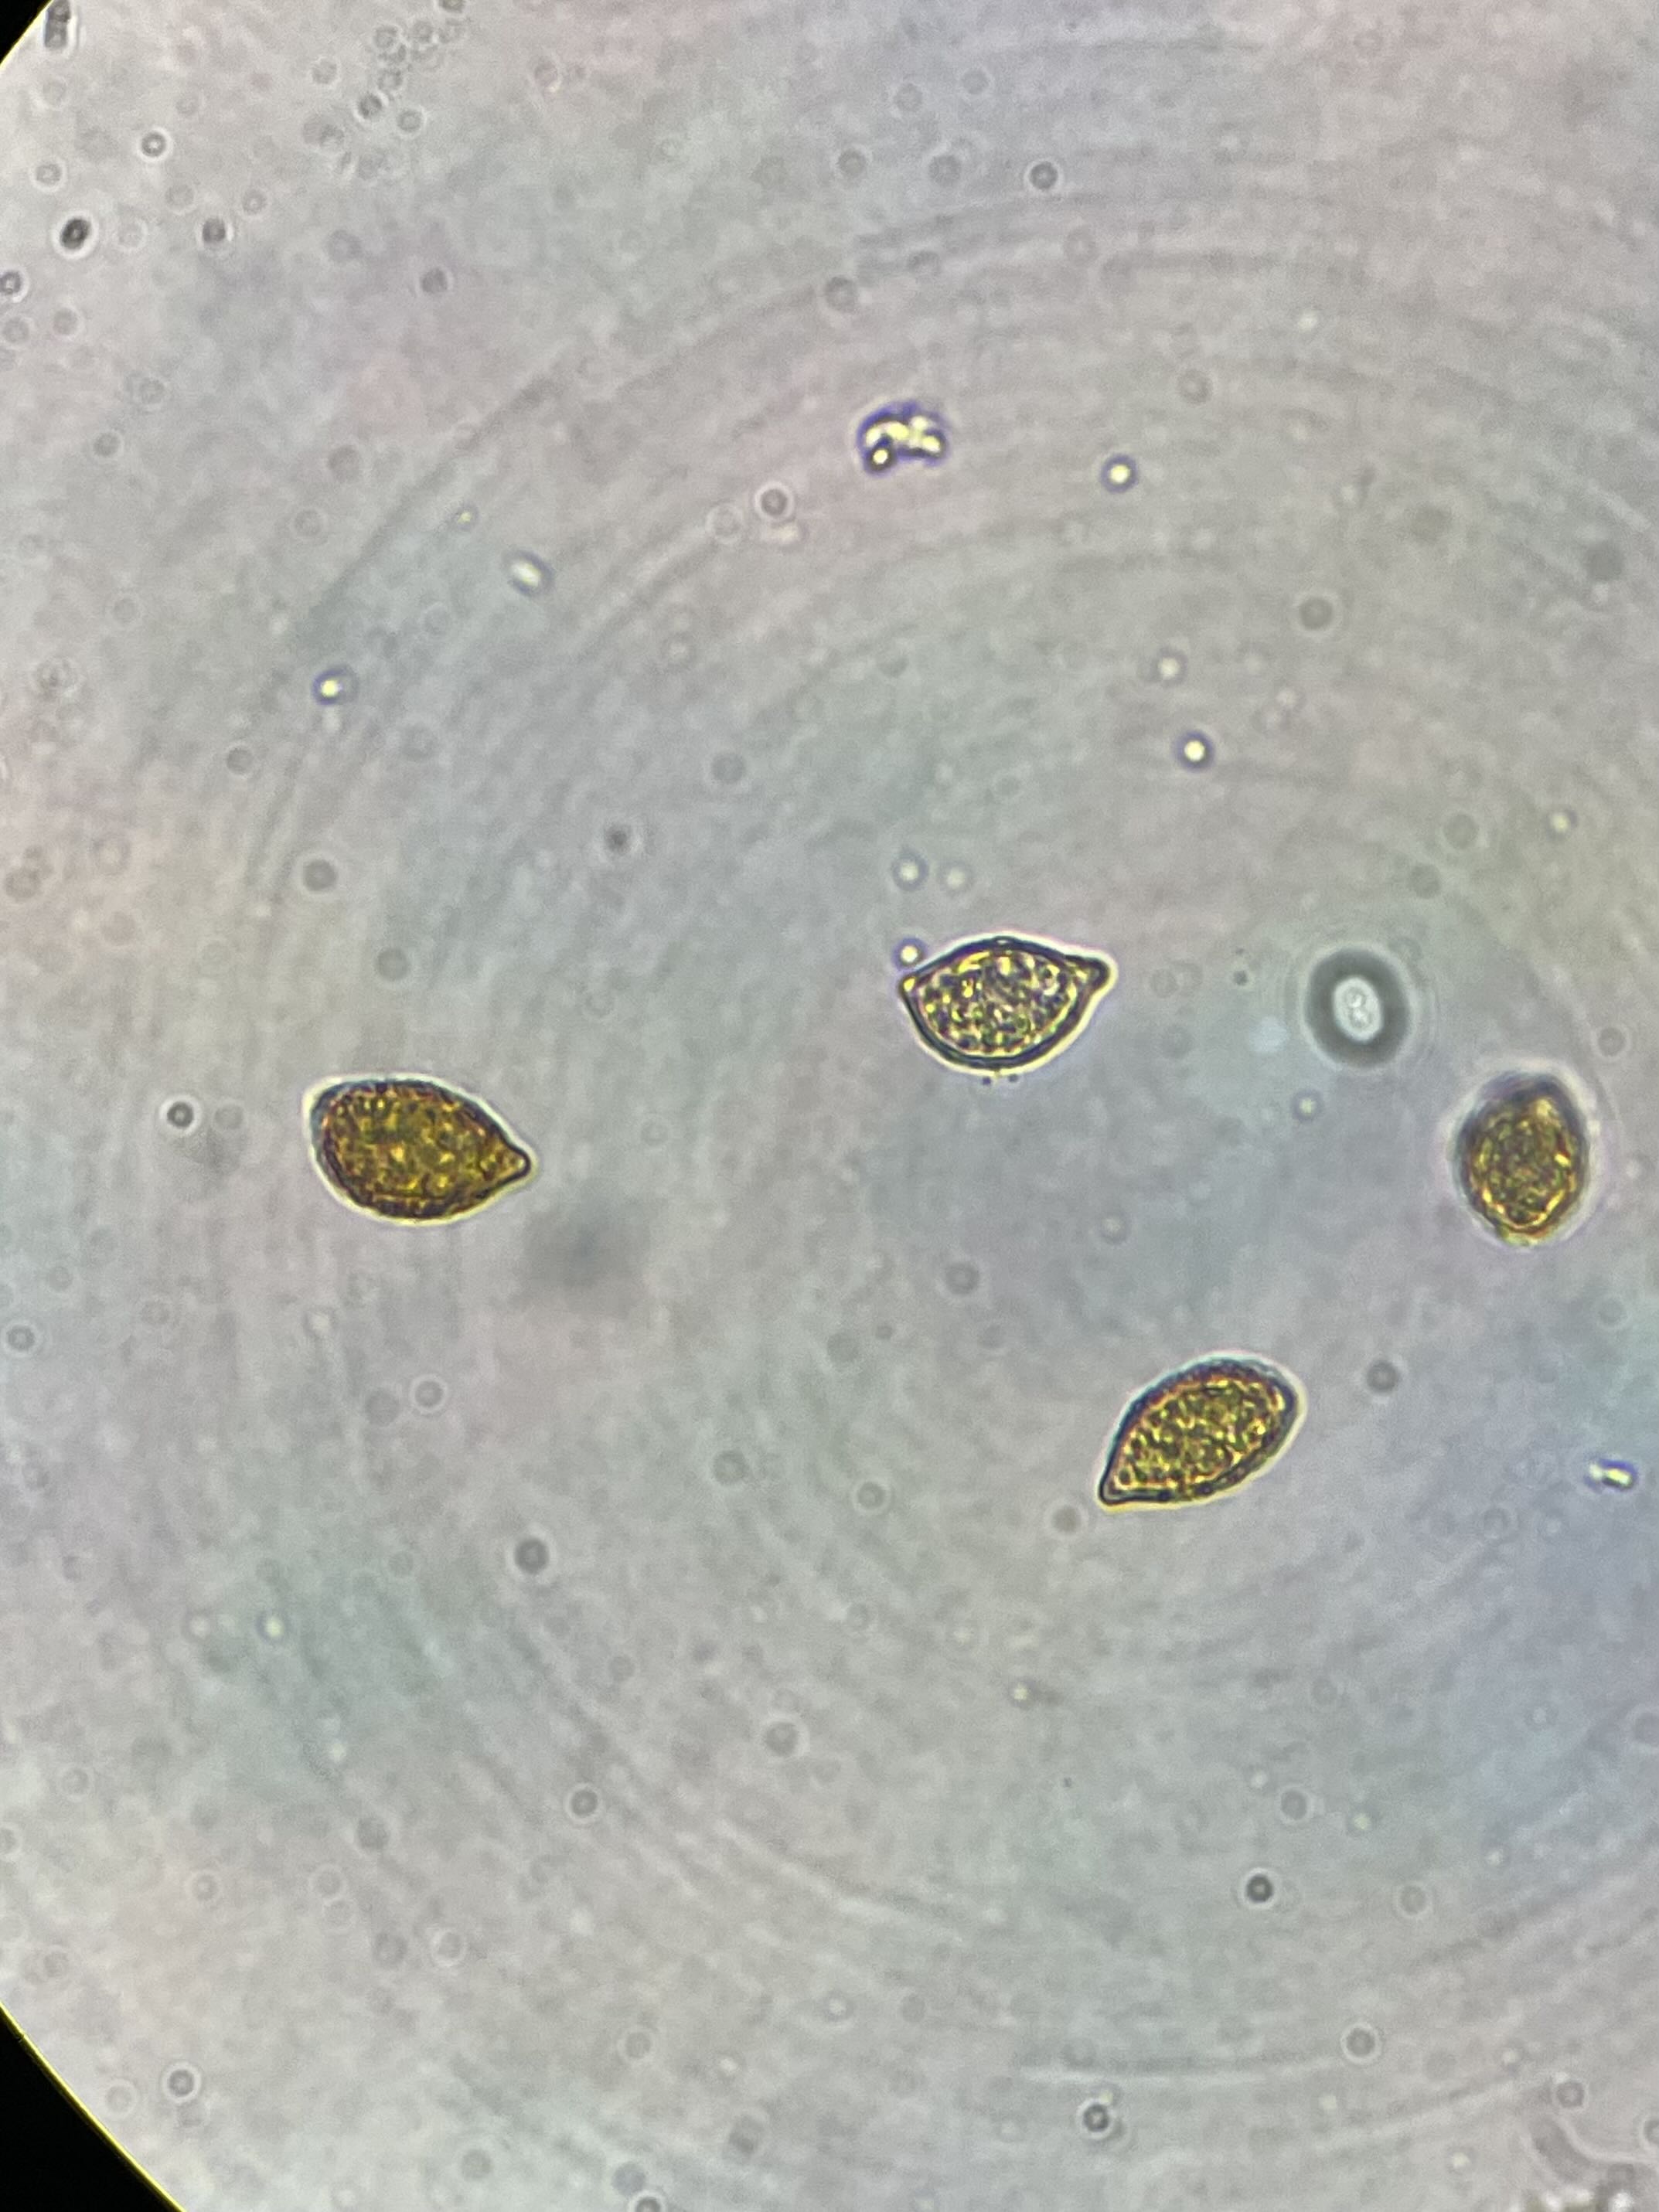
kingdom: Fungi
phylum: Basidiomycota
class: Agaricomycetes
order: Agaricales
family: Cortinariaceae
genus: Calonarius
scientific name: Calonarius elegantissimus
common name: orangegylden slørhat
